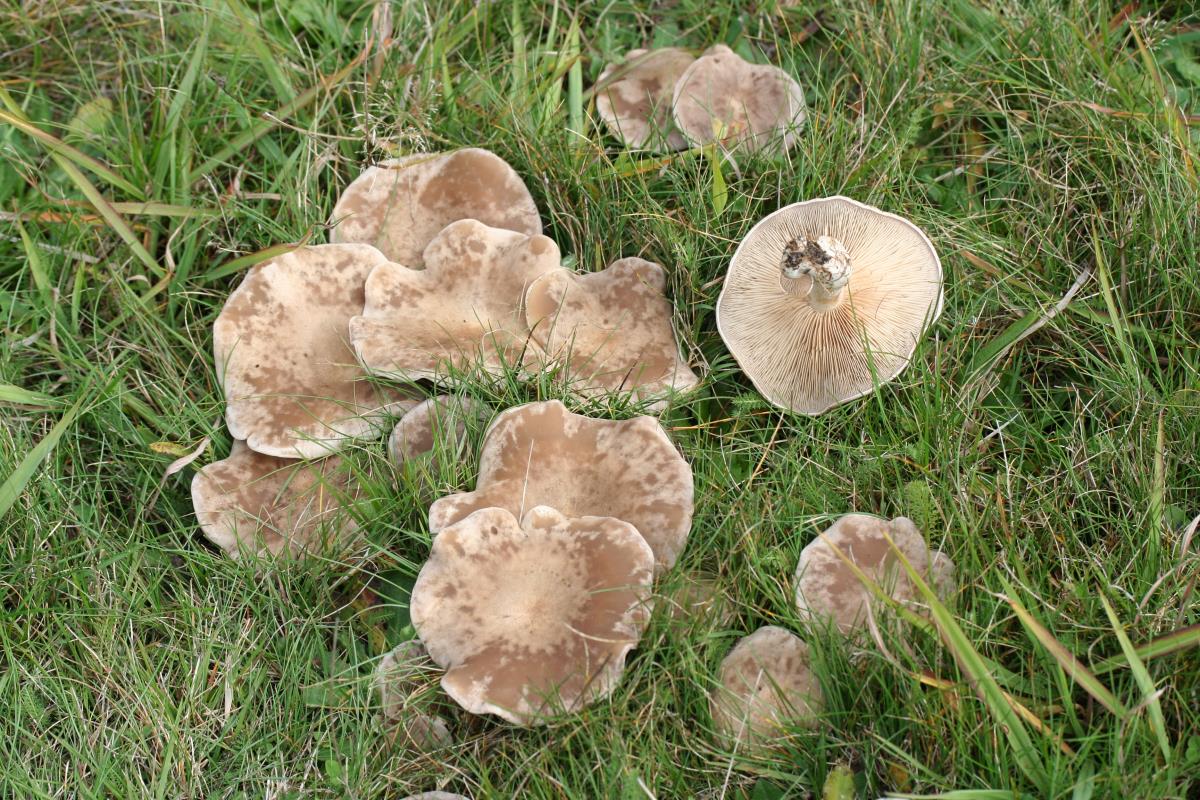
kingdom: Fungi
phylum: Basidiomycota
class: Agaricomycetes
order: Agaricales
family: Tricholomataceae
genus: Lepista
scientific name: Lepista panaeolus
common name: Spotted blewit
